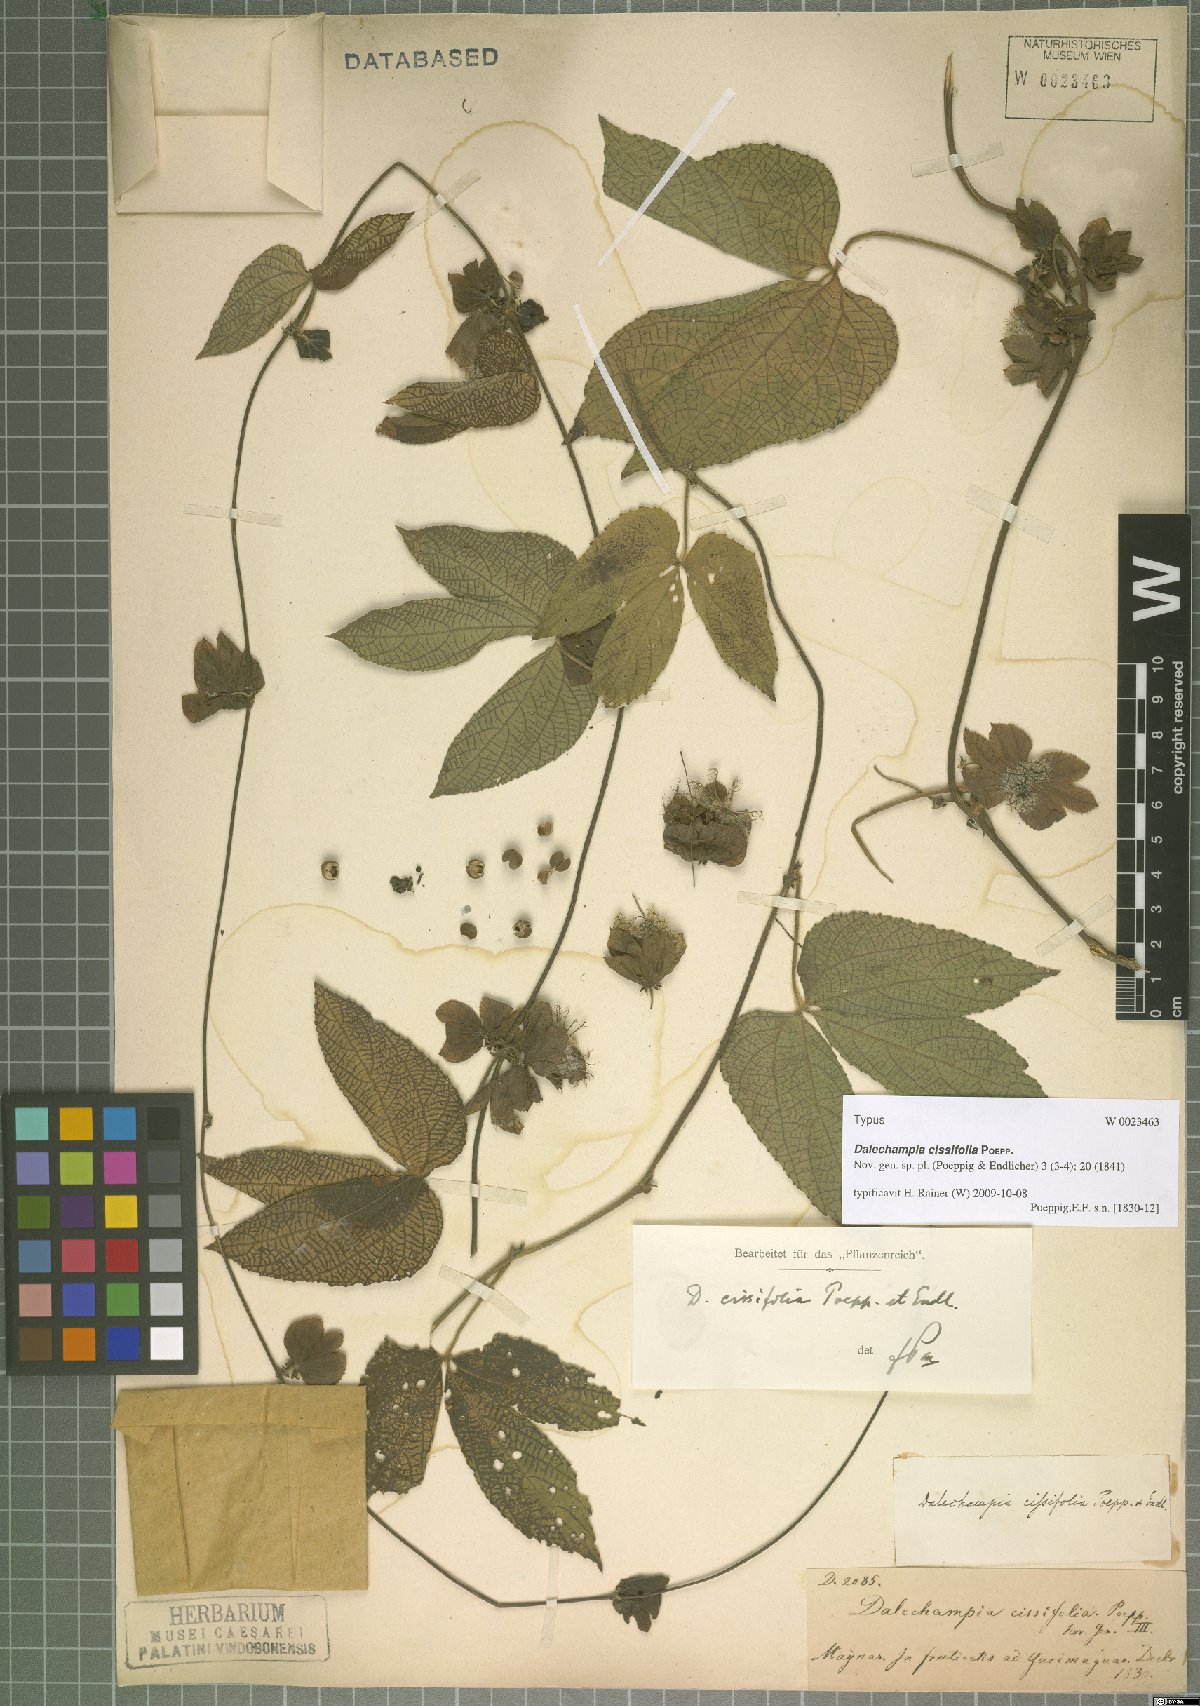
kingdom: Plantae
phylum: Tracheophyta
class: Magnoliopsida
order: Malpighiales
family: Euphorbiaceae
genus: Dalechampia
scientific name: Dalechampia cissifolia
